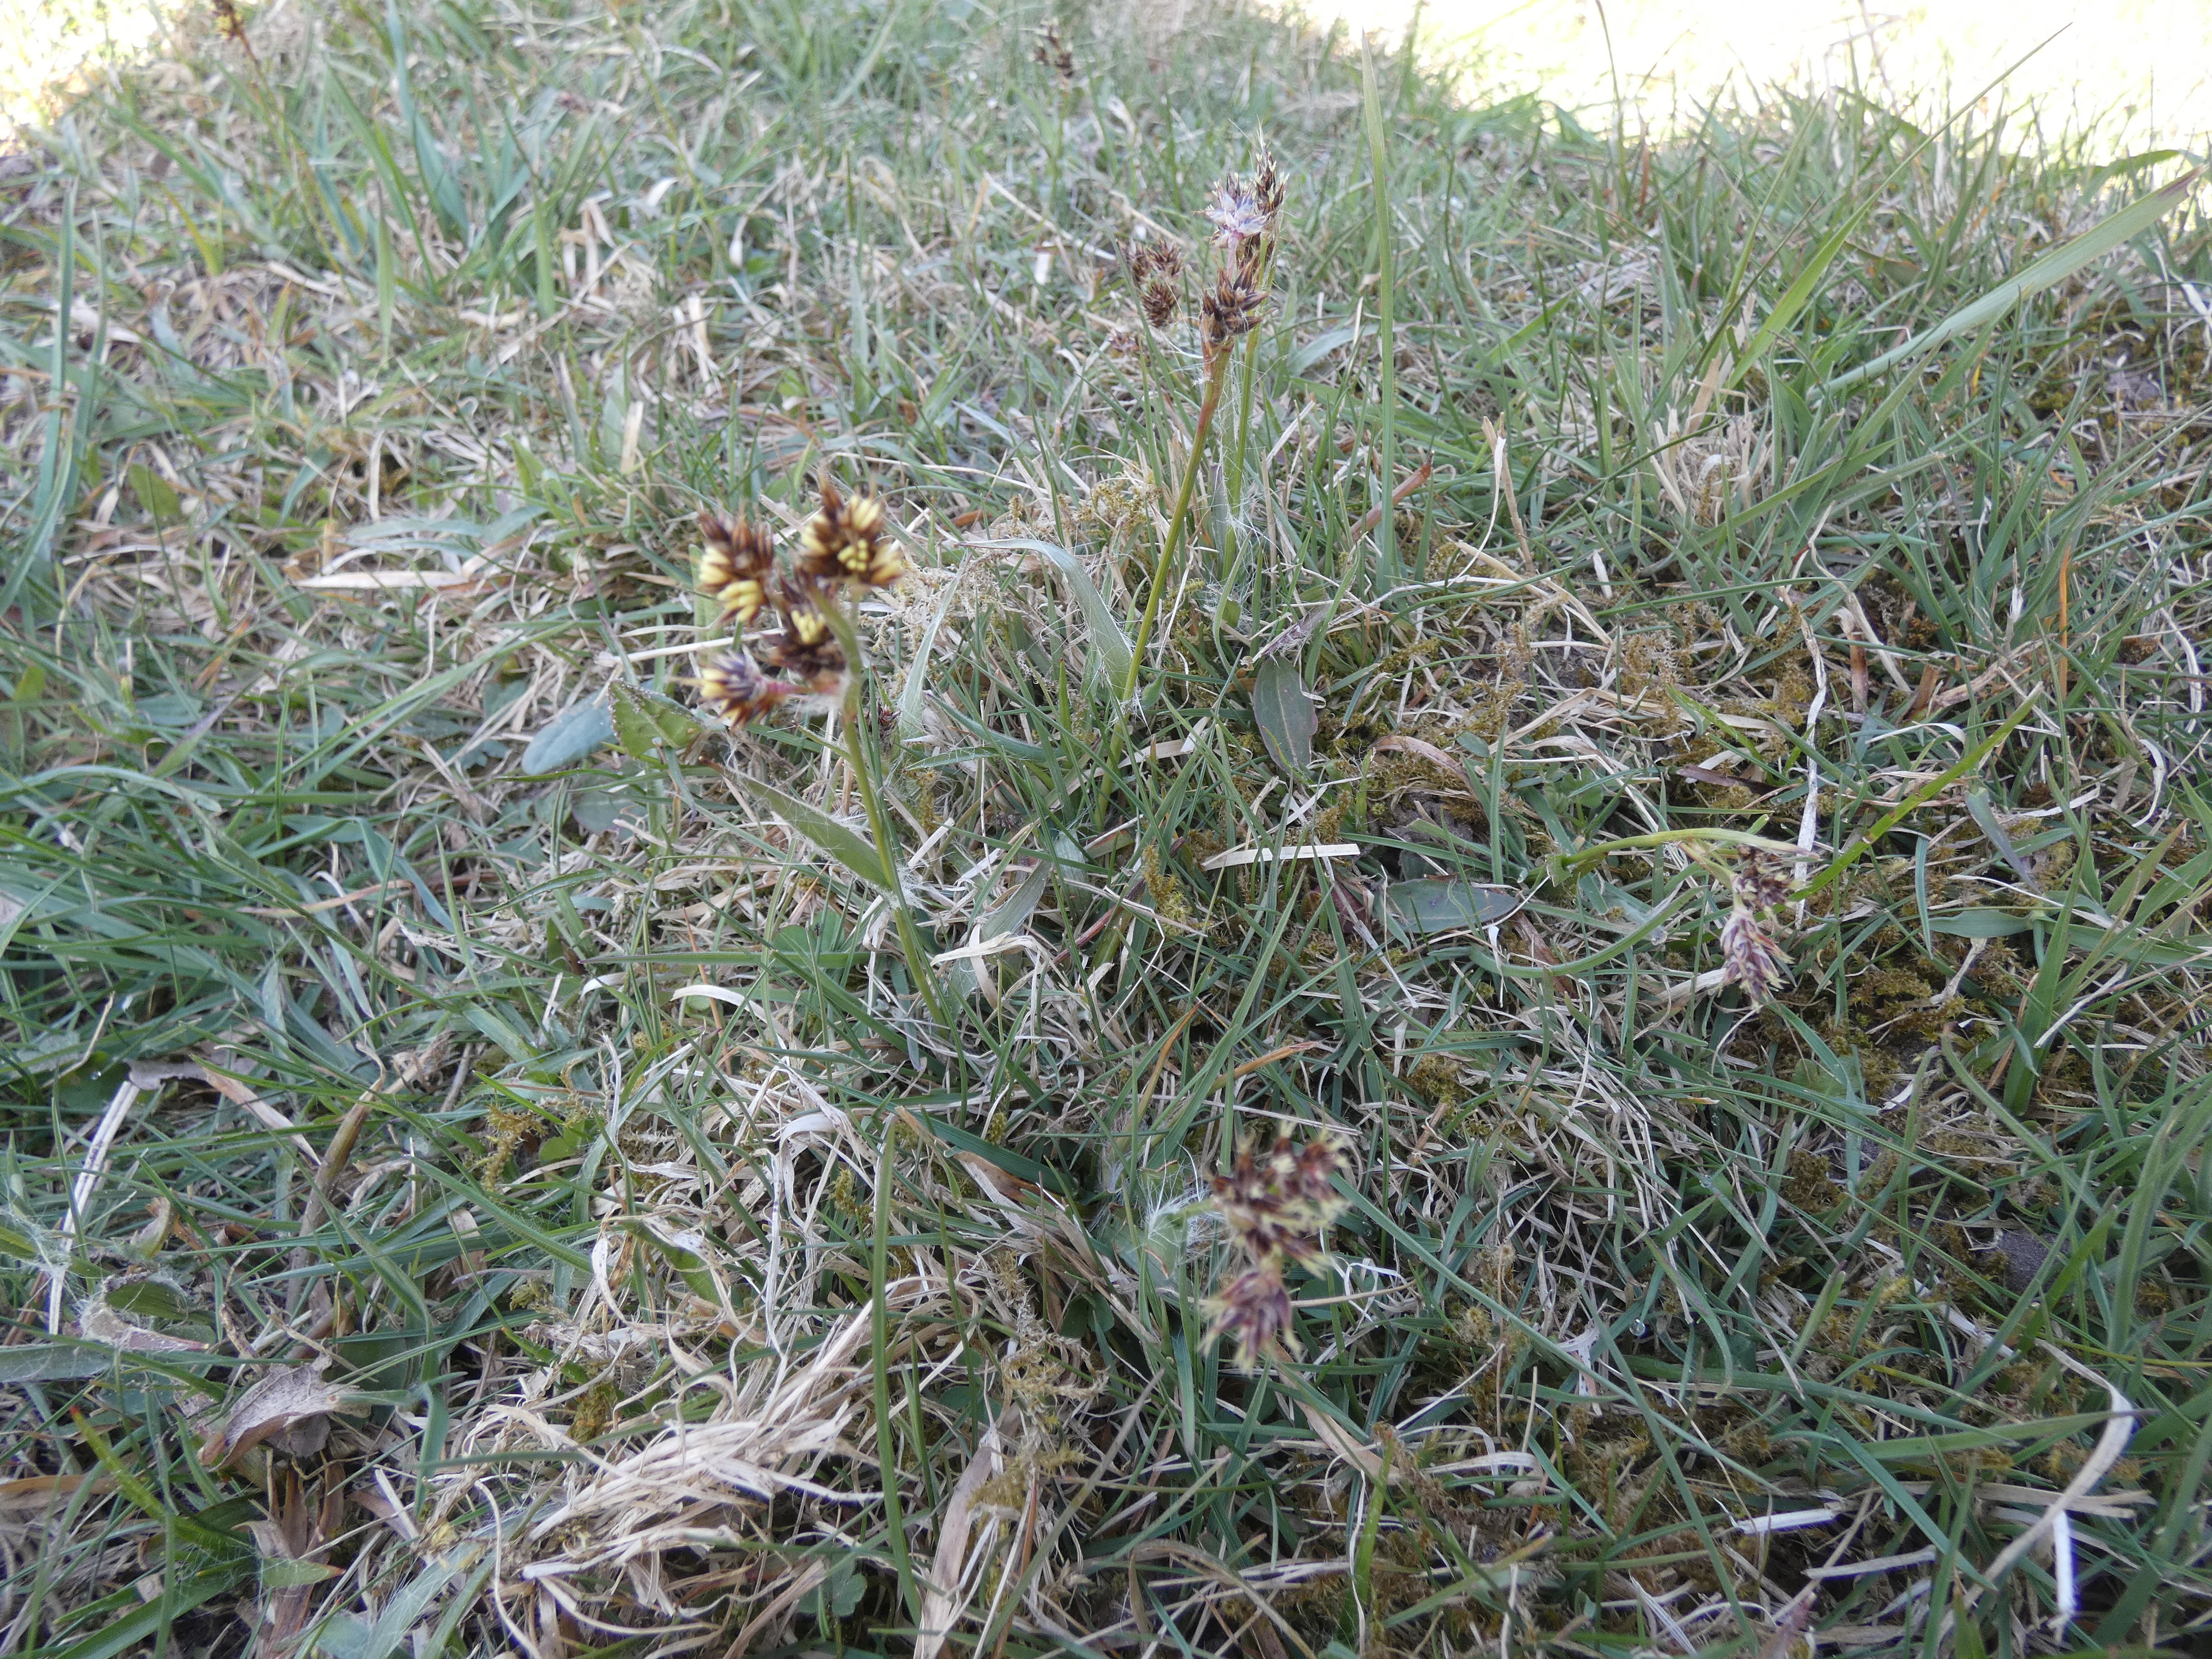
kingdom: Plantae
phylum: Tracheophyta
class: Liliopsida
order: Poales
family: Juncaceae
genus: Luzula
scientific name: Luzula campestris
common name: Mark-frytle
